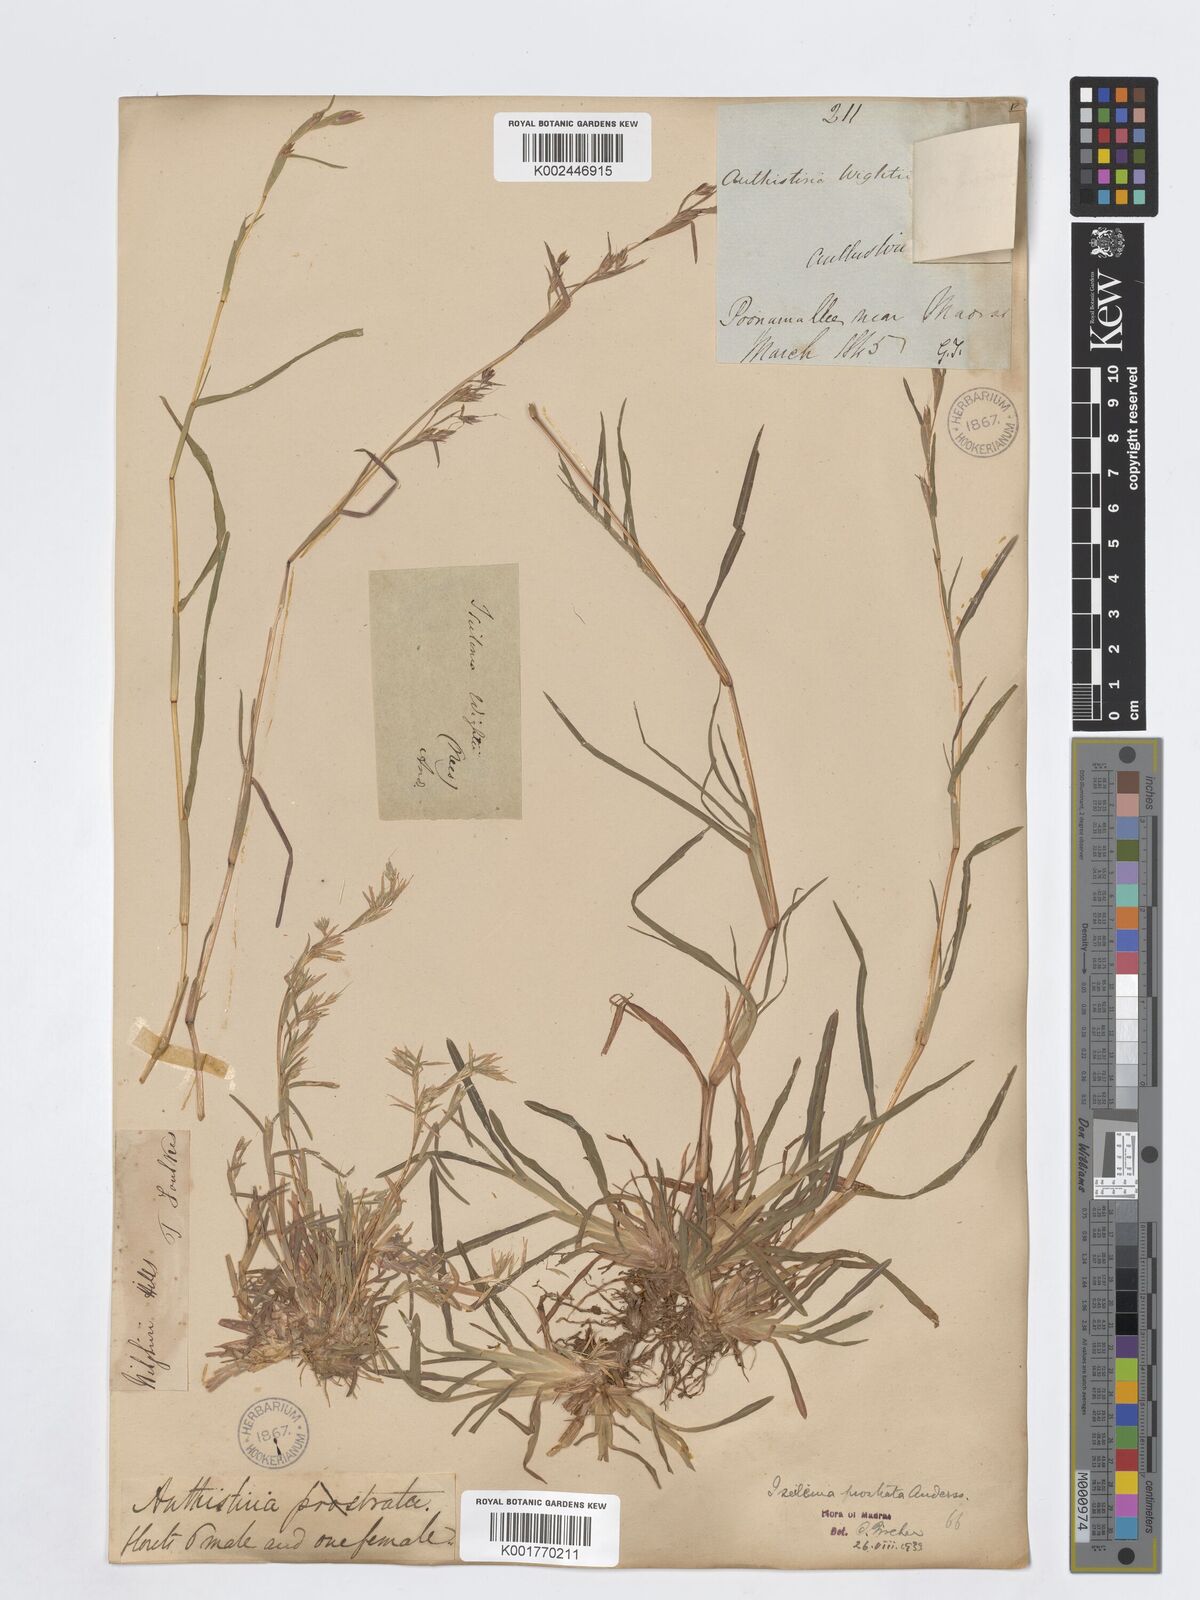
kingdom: Plantae
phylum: Tracheophyta
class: Liliopsida
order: Poales
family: Poaceae
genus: Iseilema
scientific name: Iseilema prostratum
